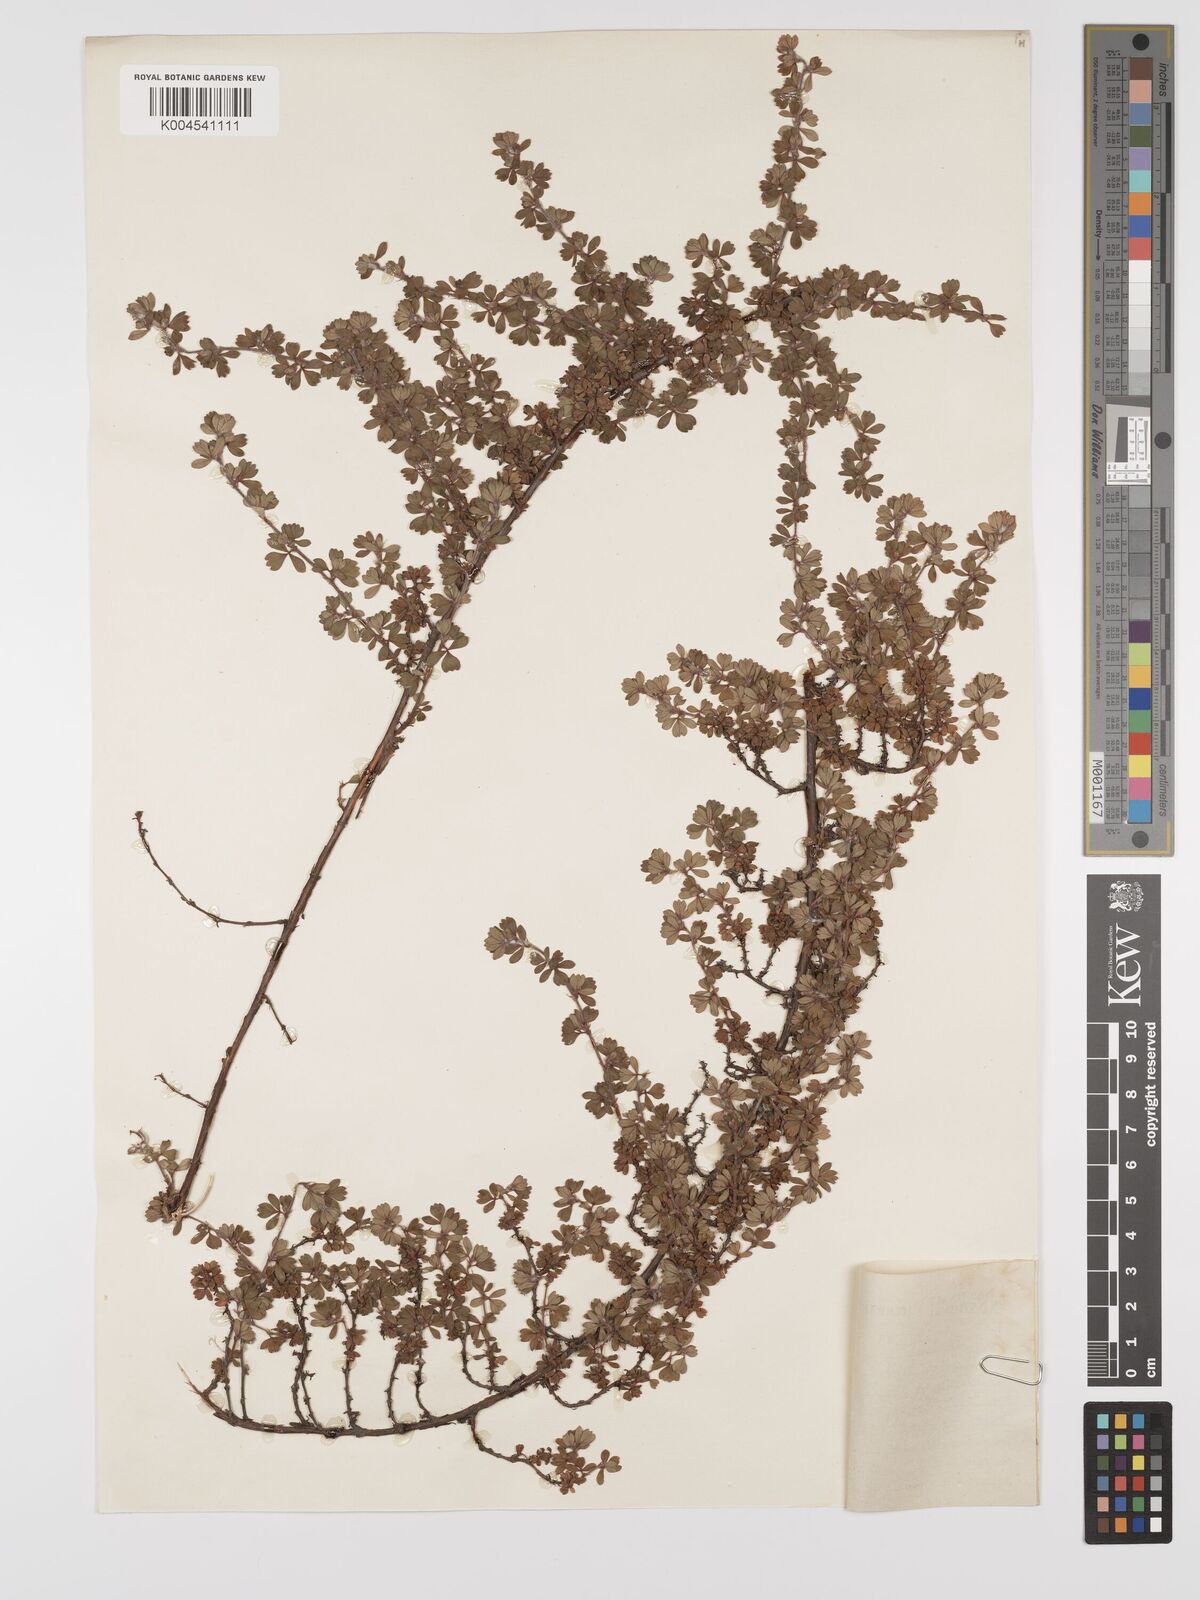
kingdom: Plantae
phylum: Tracheophyta
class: Magnoliopsida
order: Rosales
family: Rosaceae
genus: Cliffortia
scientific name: Cliffortia filicauloides
